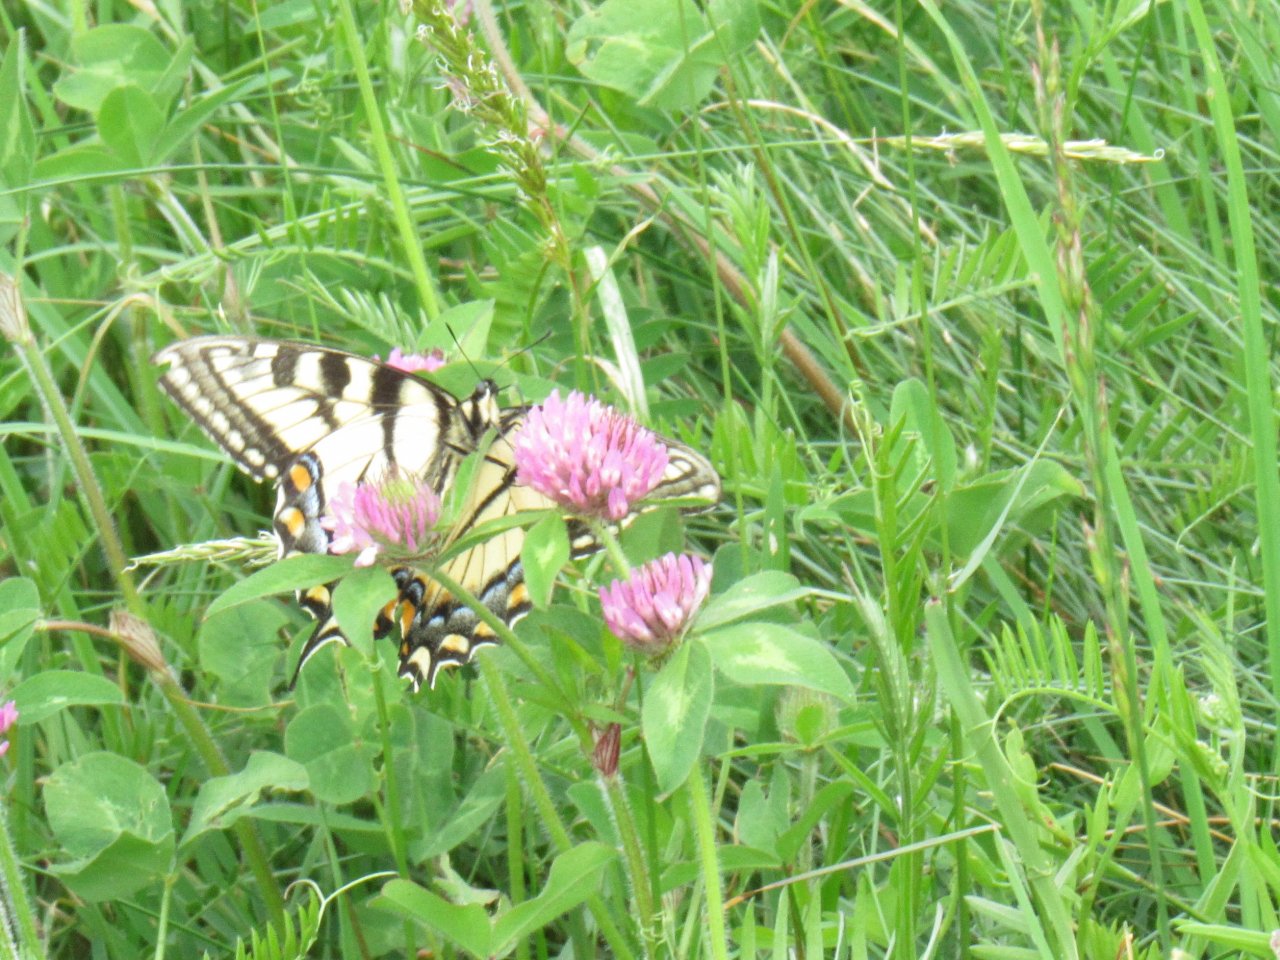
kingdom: Animalia
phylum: Arthropoda
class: Insecta
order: Lepidoptera
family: Papilionidae
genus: Pterourus
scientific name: Pterourus canadensis
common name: Canadian Tiger Swallowtail
